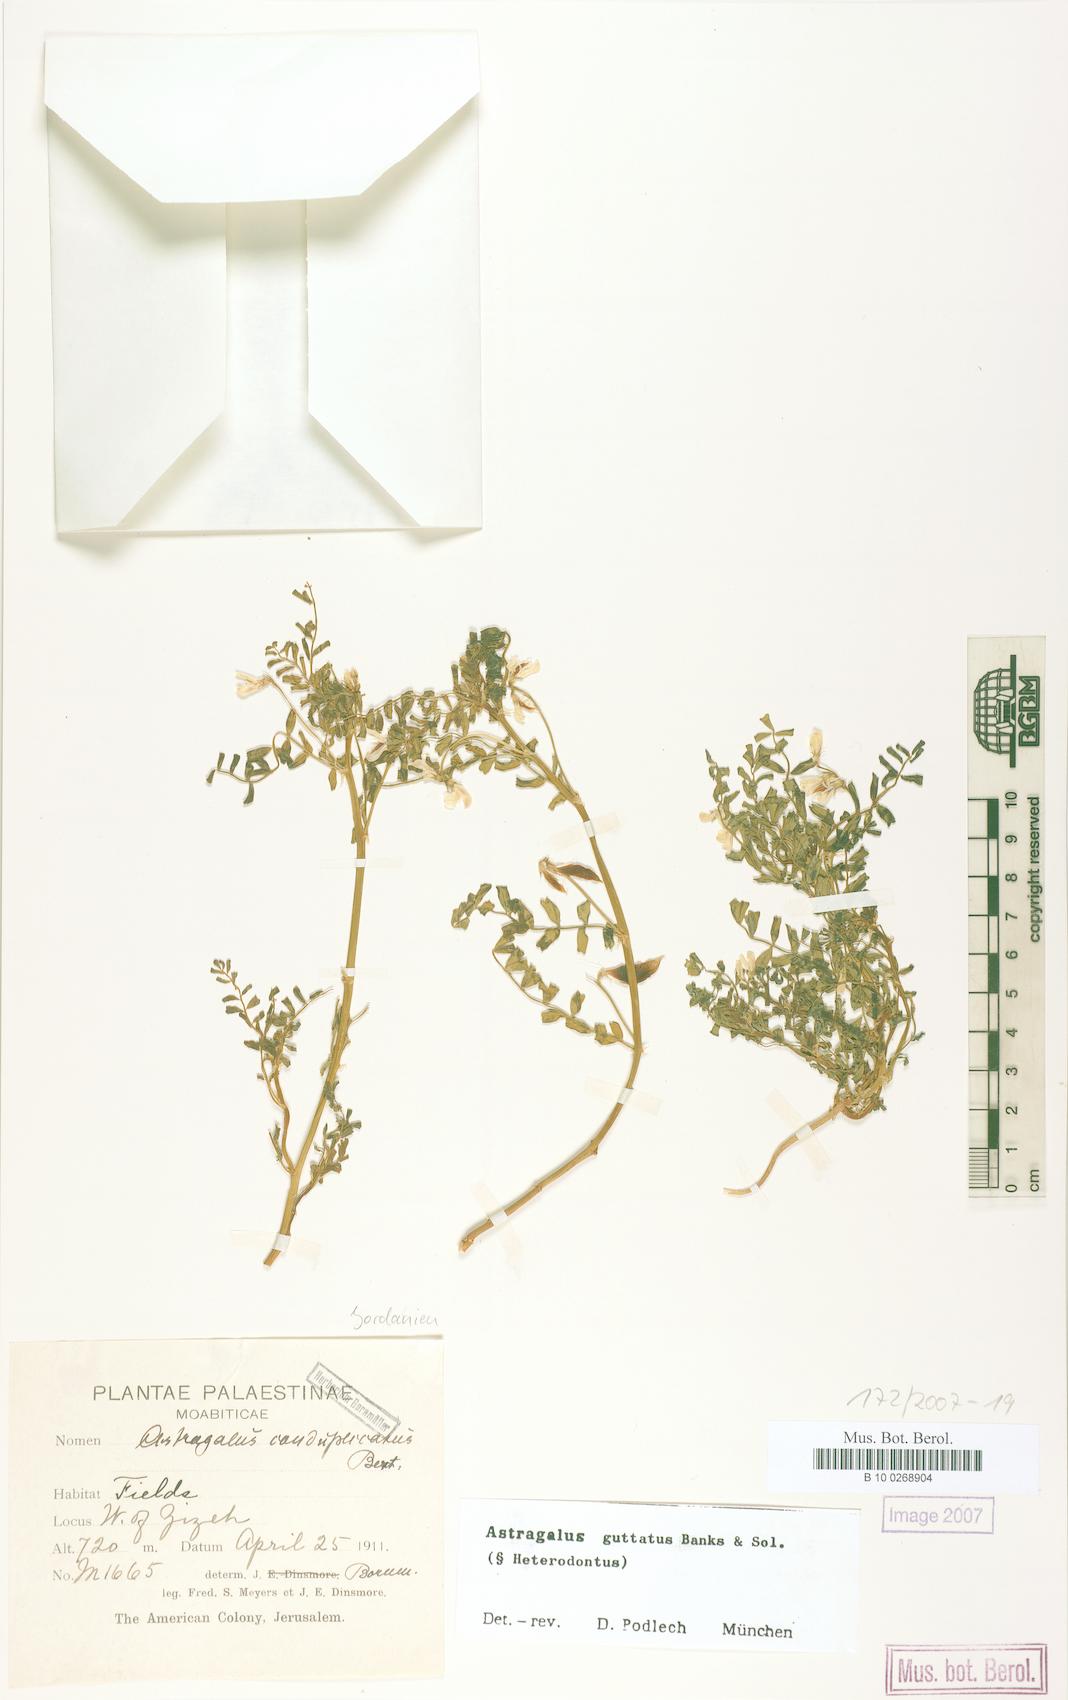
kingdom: Plantae
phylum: Tracheophyta
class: Magnoliopsida
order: Fabales
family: Fabaceae
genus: Astragalus
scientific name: Astragalus guttatus
